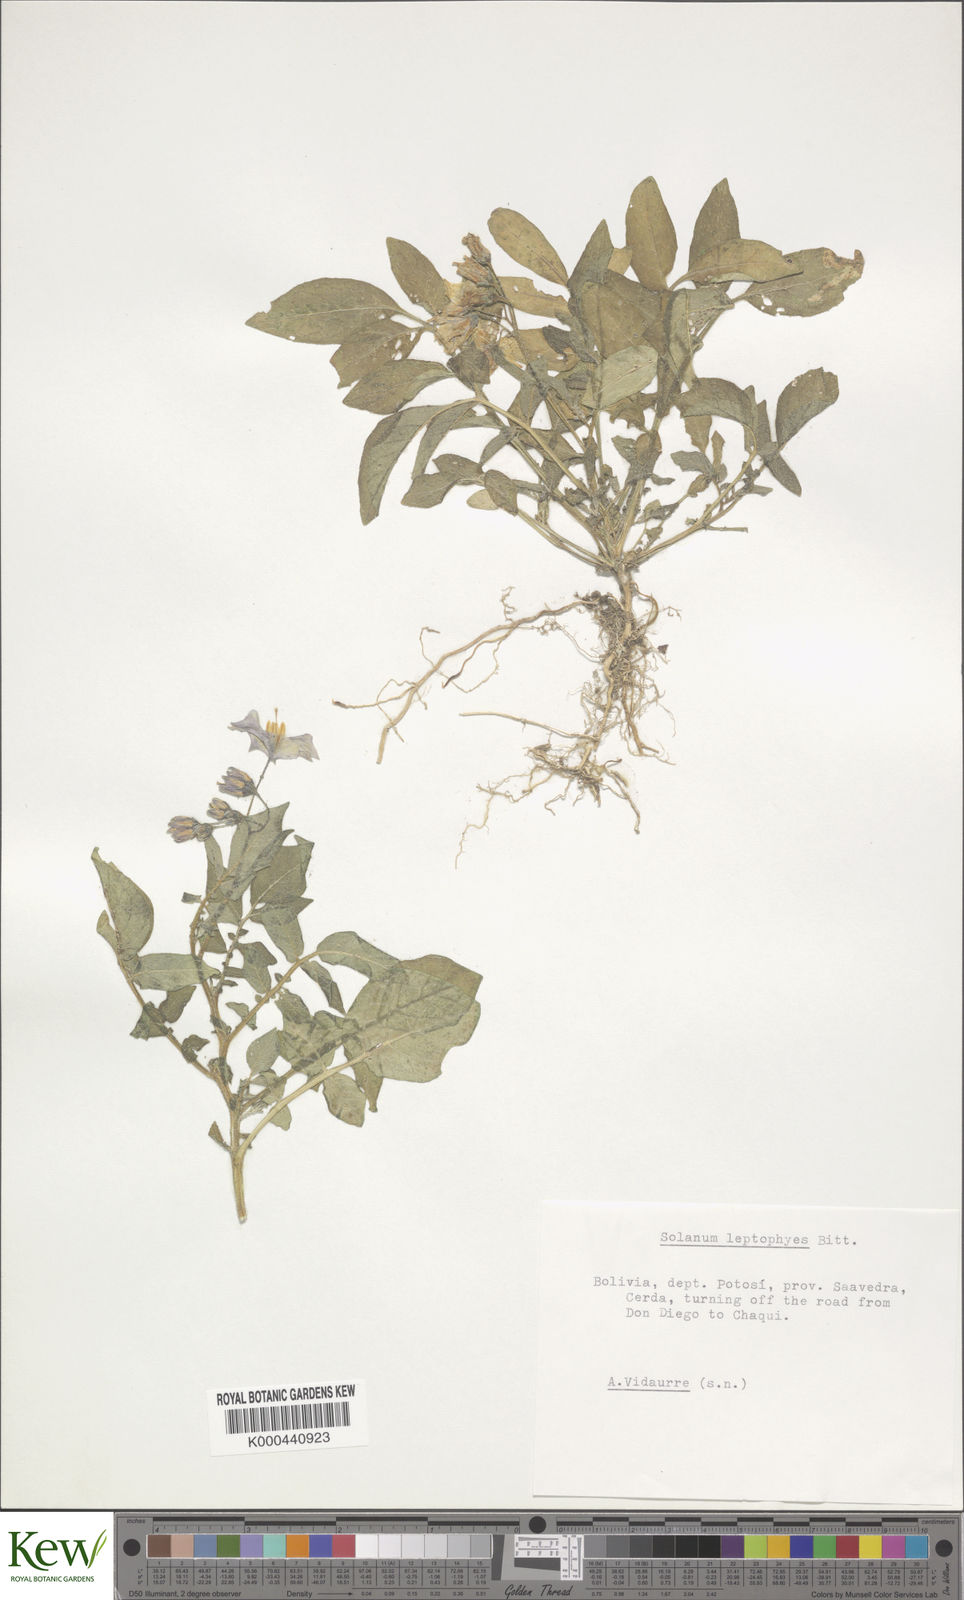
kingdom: Plantae
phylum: Tracheophyta
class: Magnoliopsida
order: Solanales
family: Solanaceae
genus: Solanum
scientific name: Solanum brevicaule
